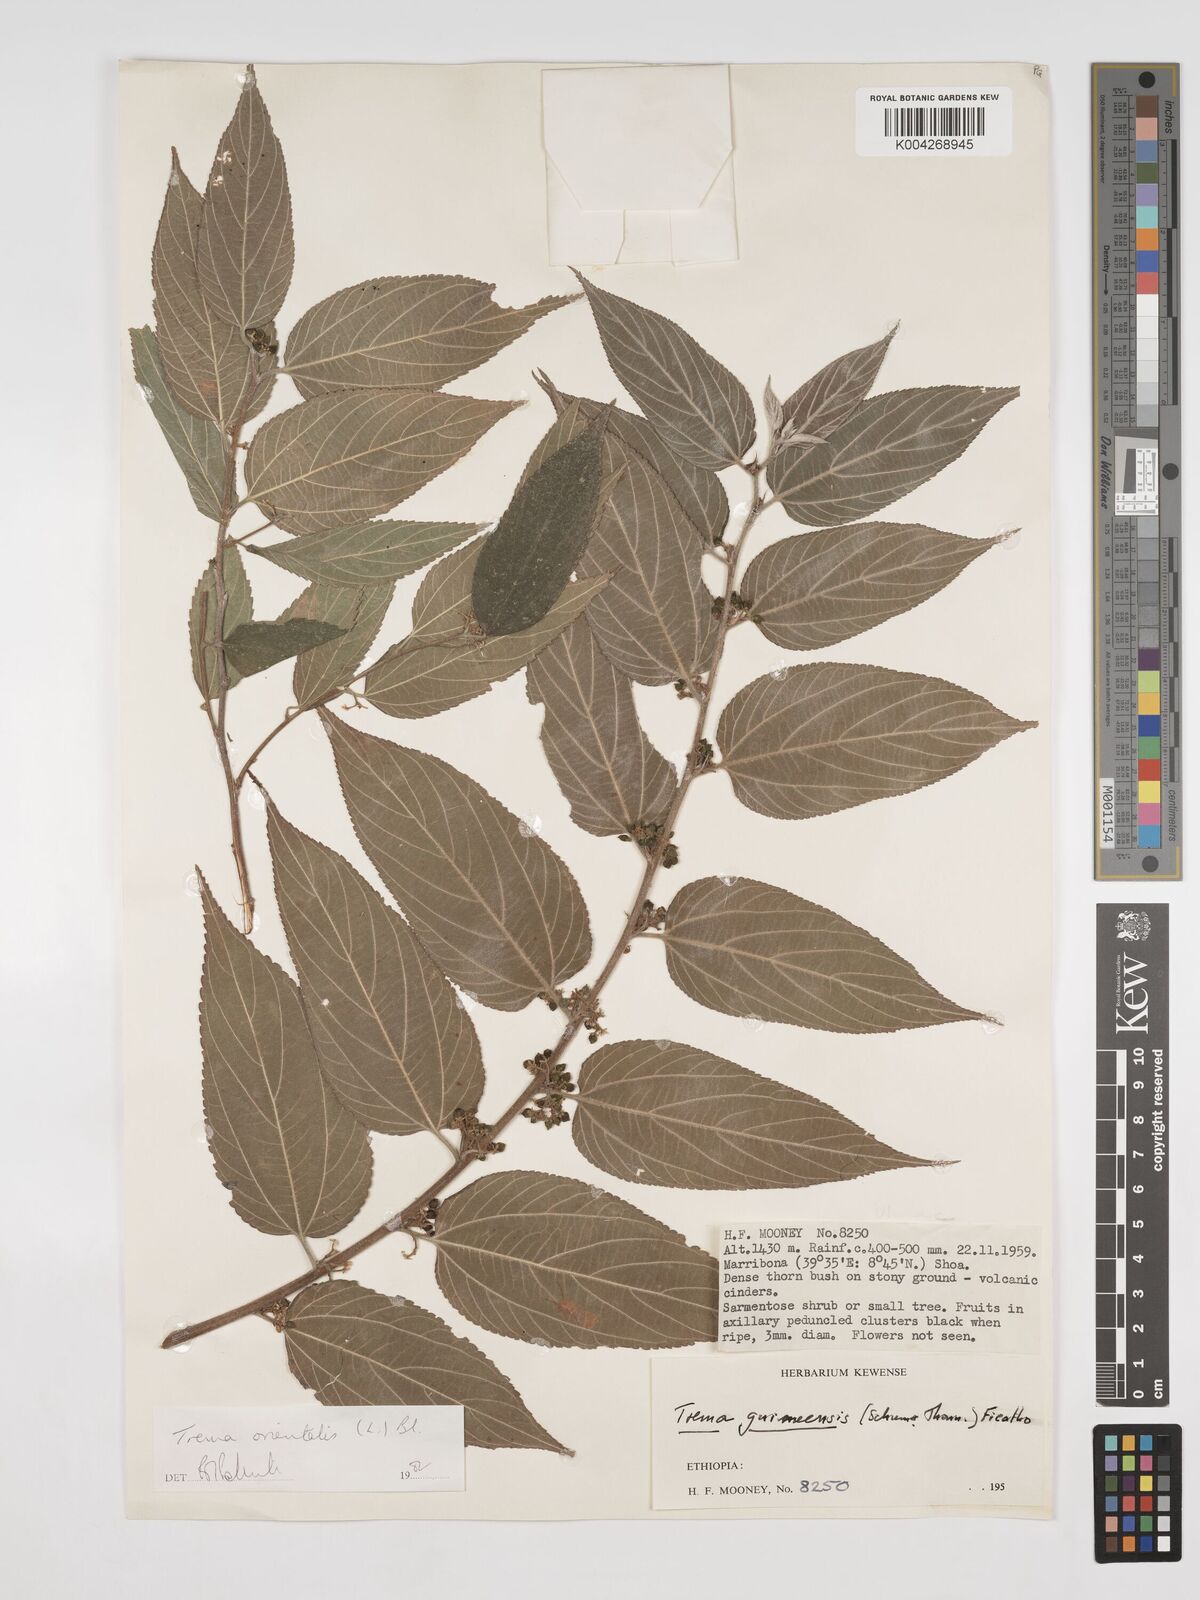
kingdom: Plantae
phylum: Tracheophyta
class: Magnoliopsida
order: Rosales
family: Cannabaceae
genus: Trema
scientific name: Trema orientale
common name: Indian charcoal tree
